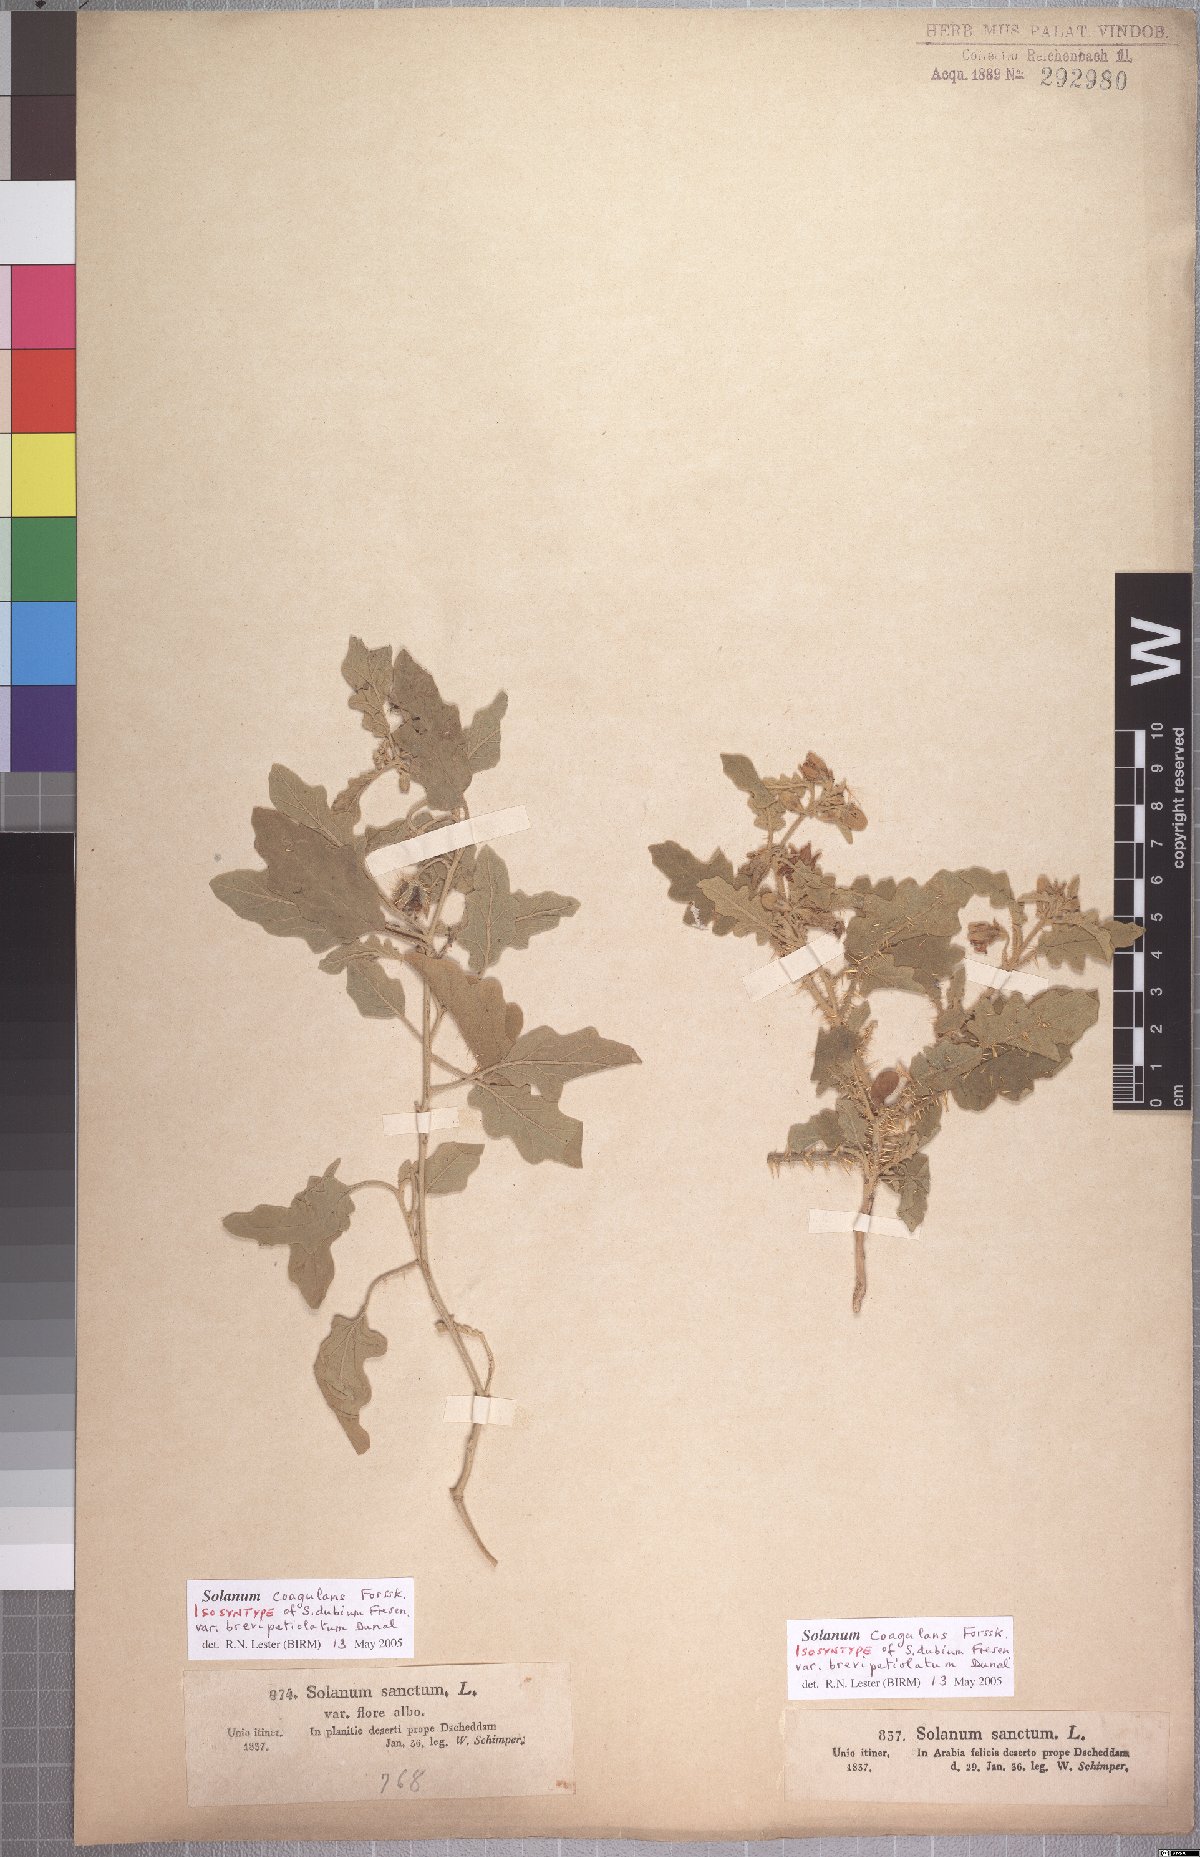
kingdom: Plantae
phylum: Tracheophyta
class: Magnoliopsida
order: Solanales
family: Solanaceae
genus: Solanum
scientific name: Solanum coagulans
